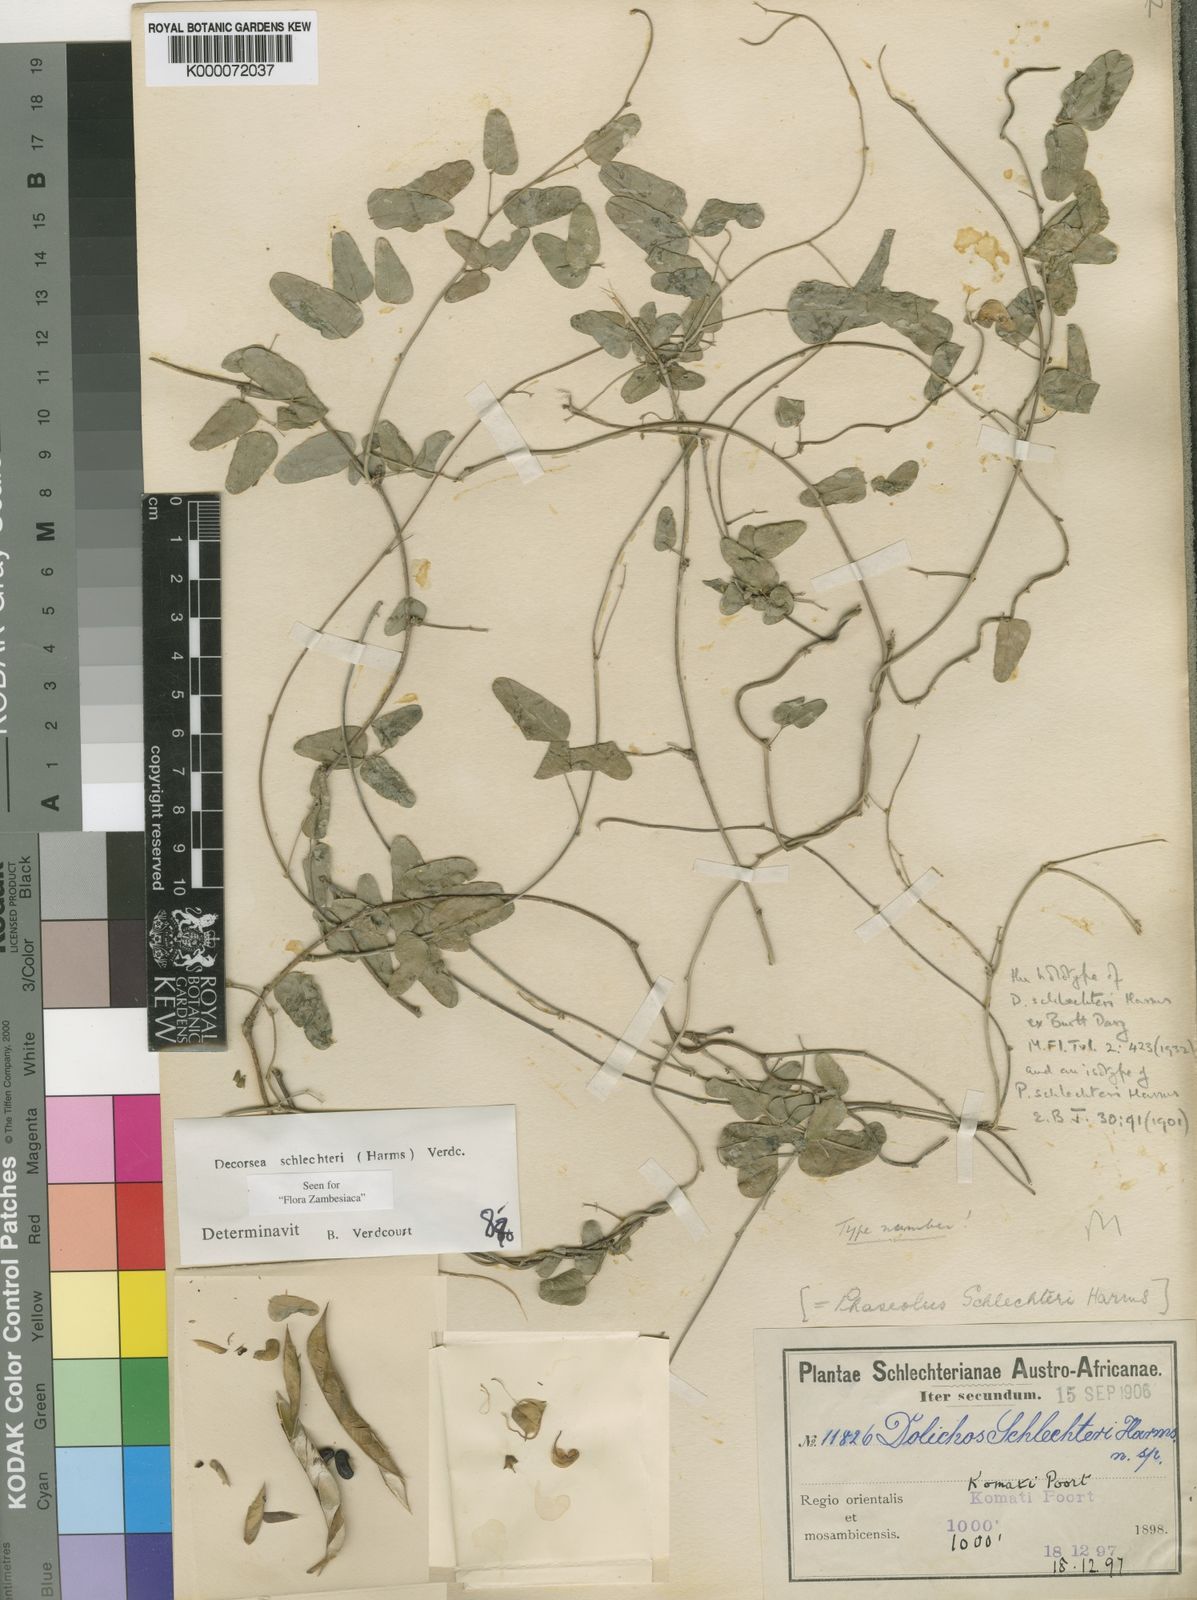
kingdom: Plantae
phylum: Tracheophyta
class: Magnoliopsida
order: Fabales
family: Fabaceae
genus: Decorsea
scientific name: Decorsea schlechteri
